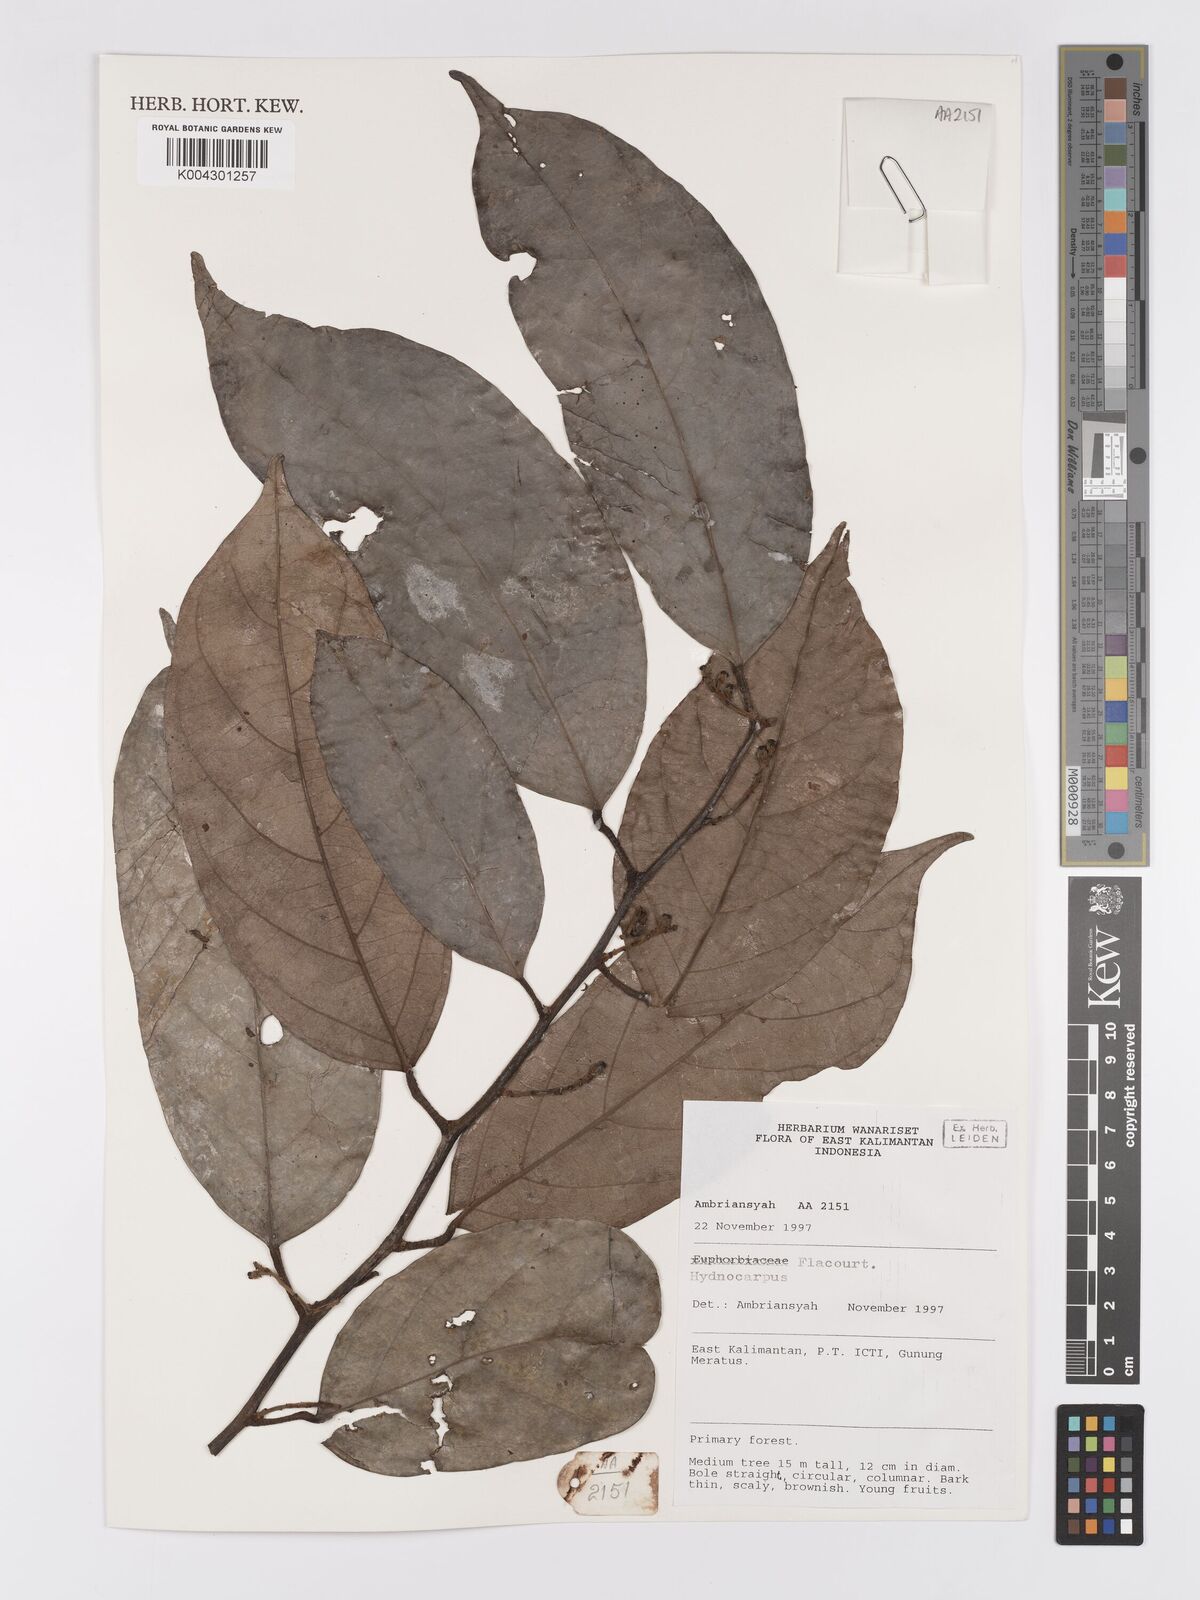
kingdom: Plantae
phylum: Tracheophyta
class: Magnoliopsida
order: Malpighiales
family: Achariaceae
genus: Hydnocarpus
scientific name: Hydnocarpus
